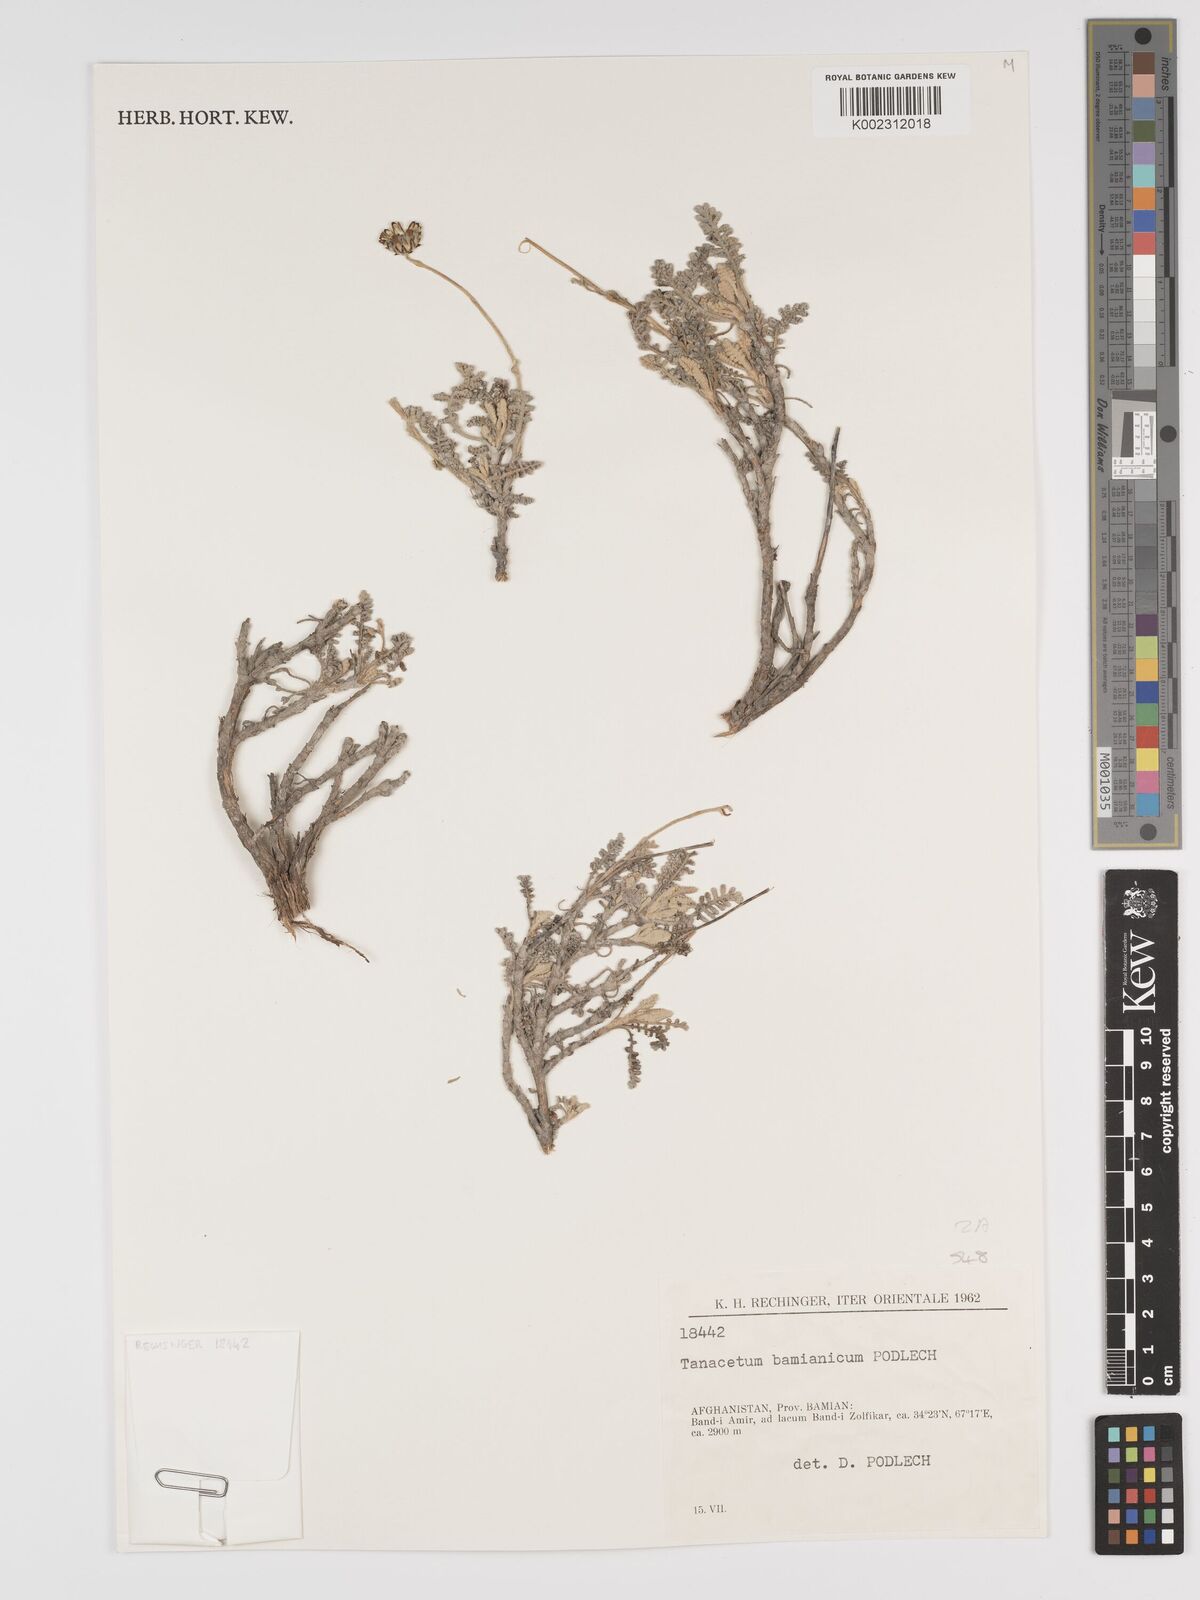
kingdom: Plantae
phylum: Tracheophyta
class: Magnoliopsida
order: Asterales
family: Asteraceae
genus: Tanacetum
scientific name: Tanacetum bamianicum
